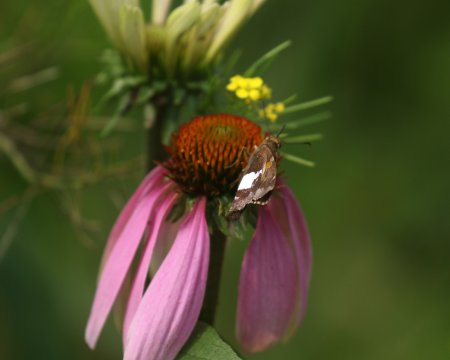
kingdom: Animalia
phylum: Arthropoda
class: Insecta
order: Lepidoptera
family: Hesperiidae
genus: Epargyreus
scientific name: Epargyreus clarus
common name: Silver-spotted Skipper
